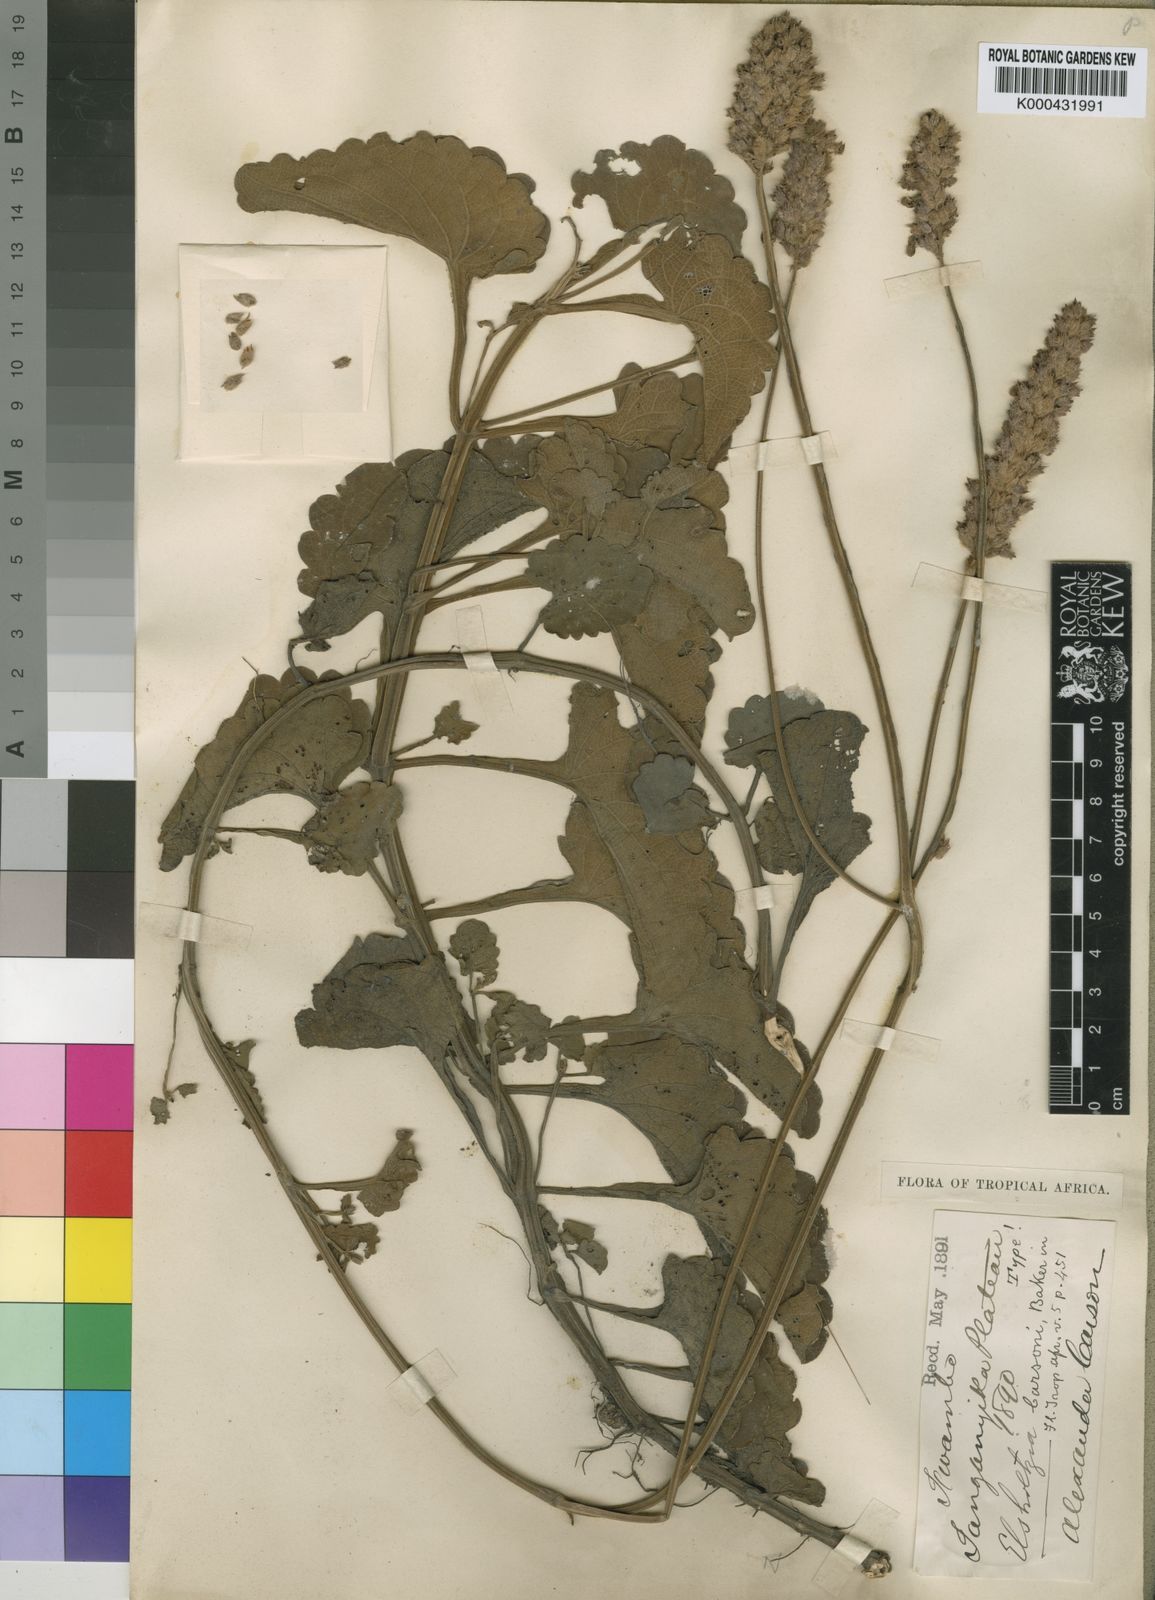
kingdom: Plantae
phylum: Tracheophyta
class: Magnoliopsida
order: Lamiales
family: Lamiaceae
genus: Coleus
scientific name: Coleus betonicifolius
